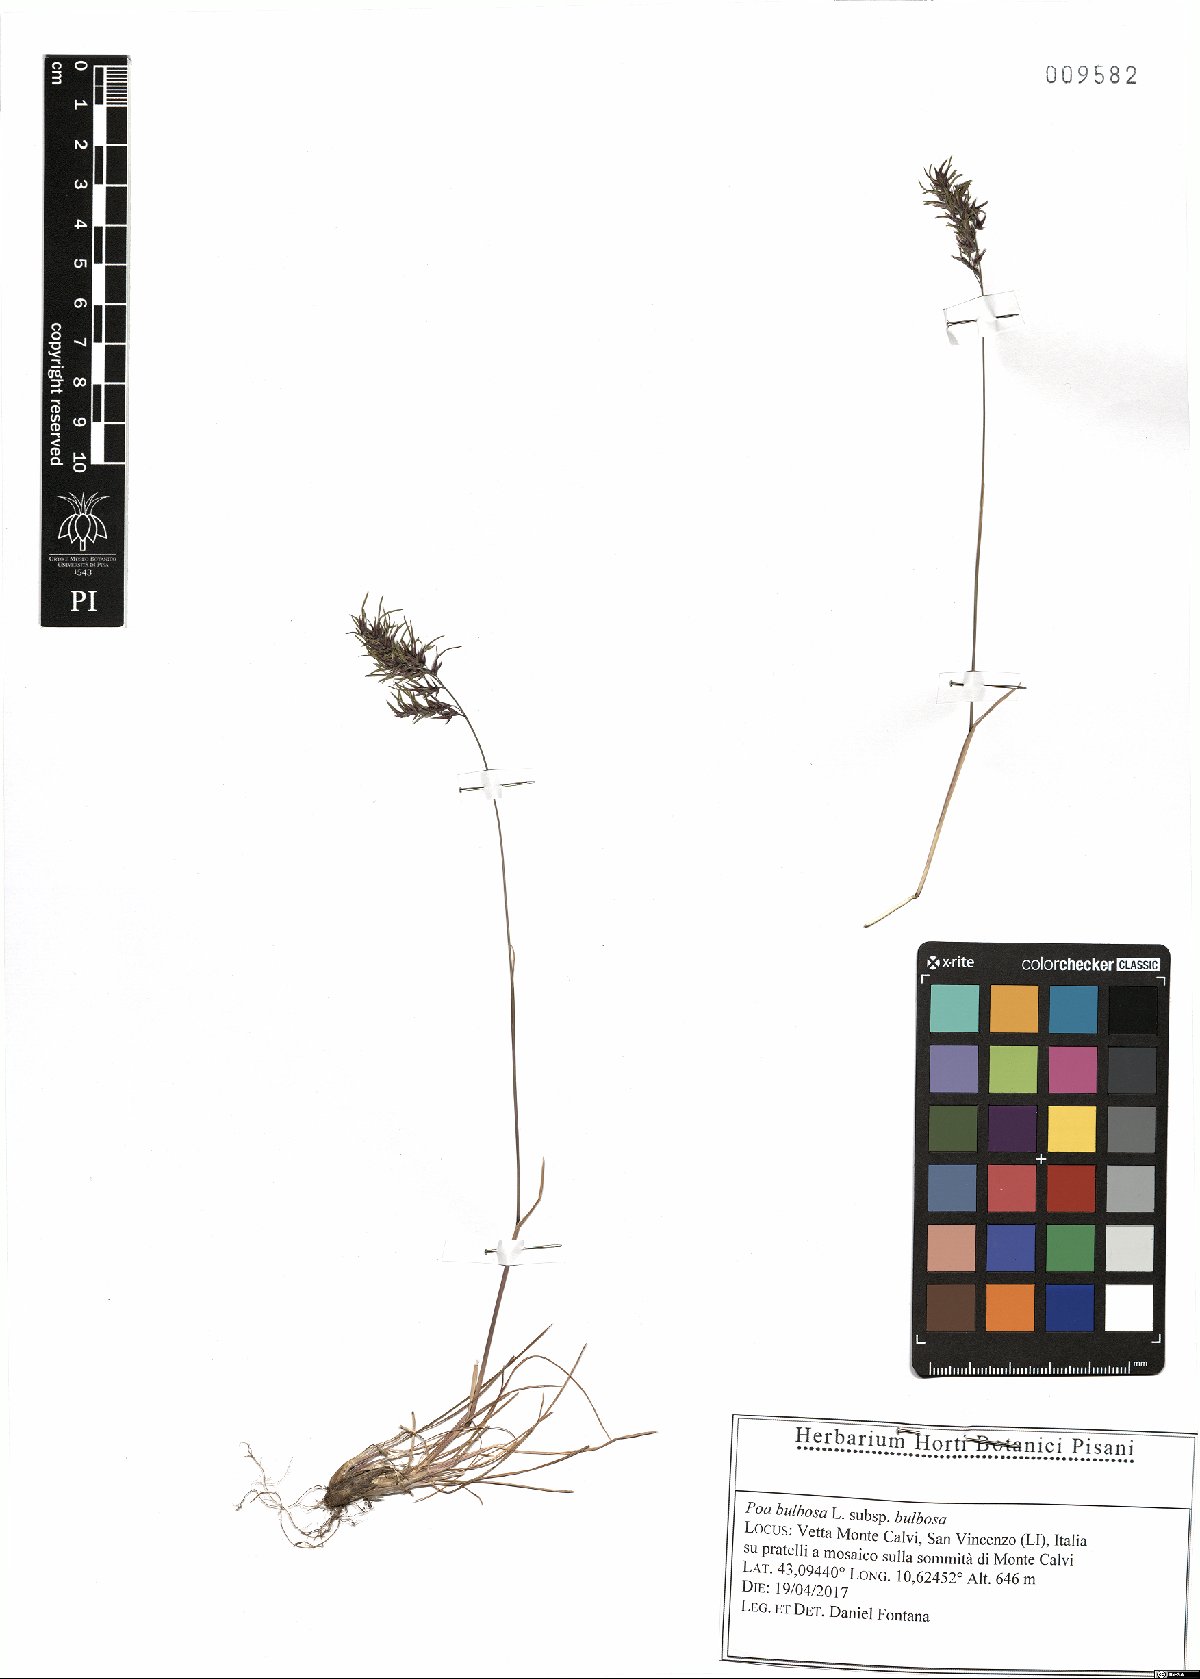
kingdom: Plantae
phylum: Tracheophyta
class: Liliopsida
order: Poales
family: Poaceae
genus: Poa
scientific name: Poa bulbosa
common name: Bulbous bluegrass
